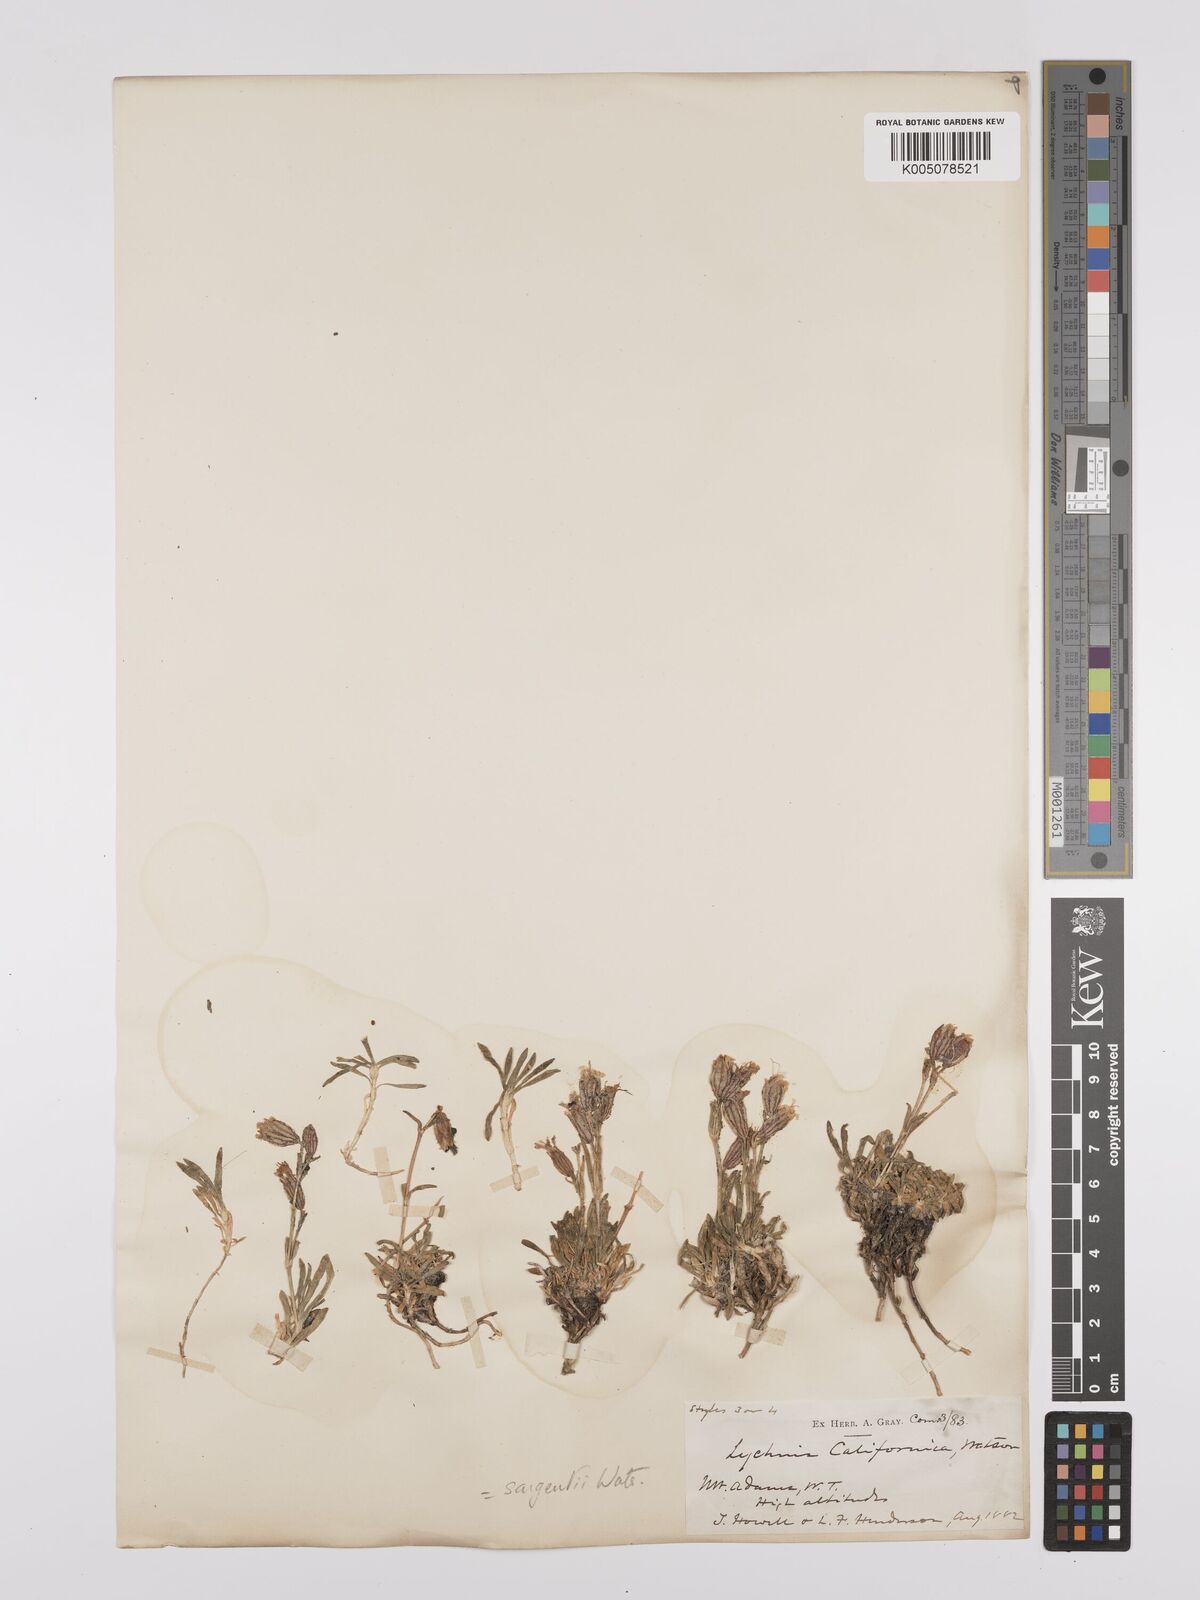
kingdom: Plantae
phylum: Tracheophyta
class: Magnoliopsida
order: Caryophyllales
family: Caryophyllaceae
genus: Silene
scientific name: Silene sargentii
